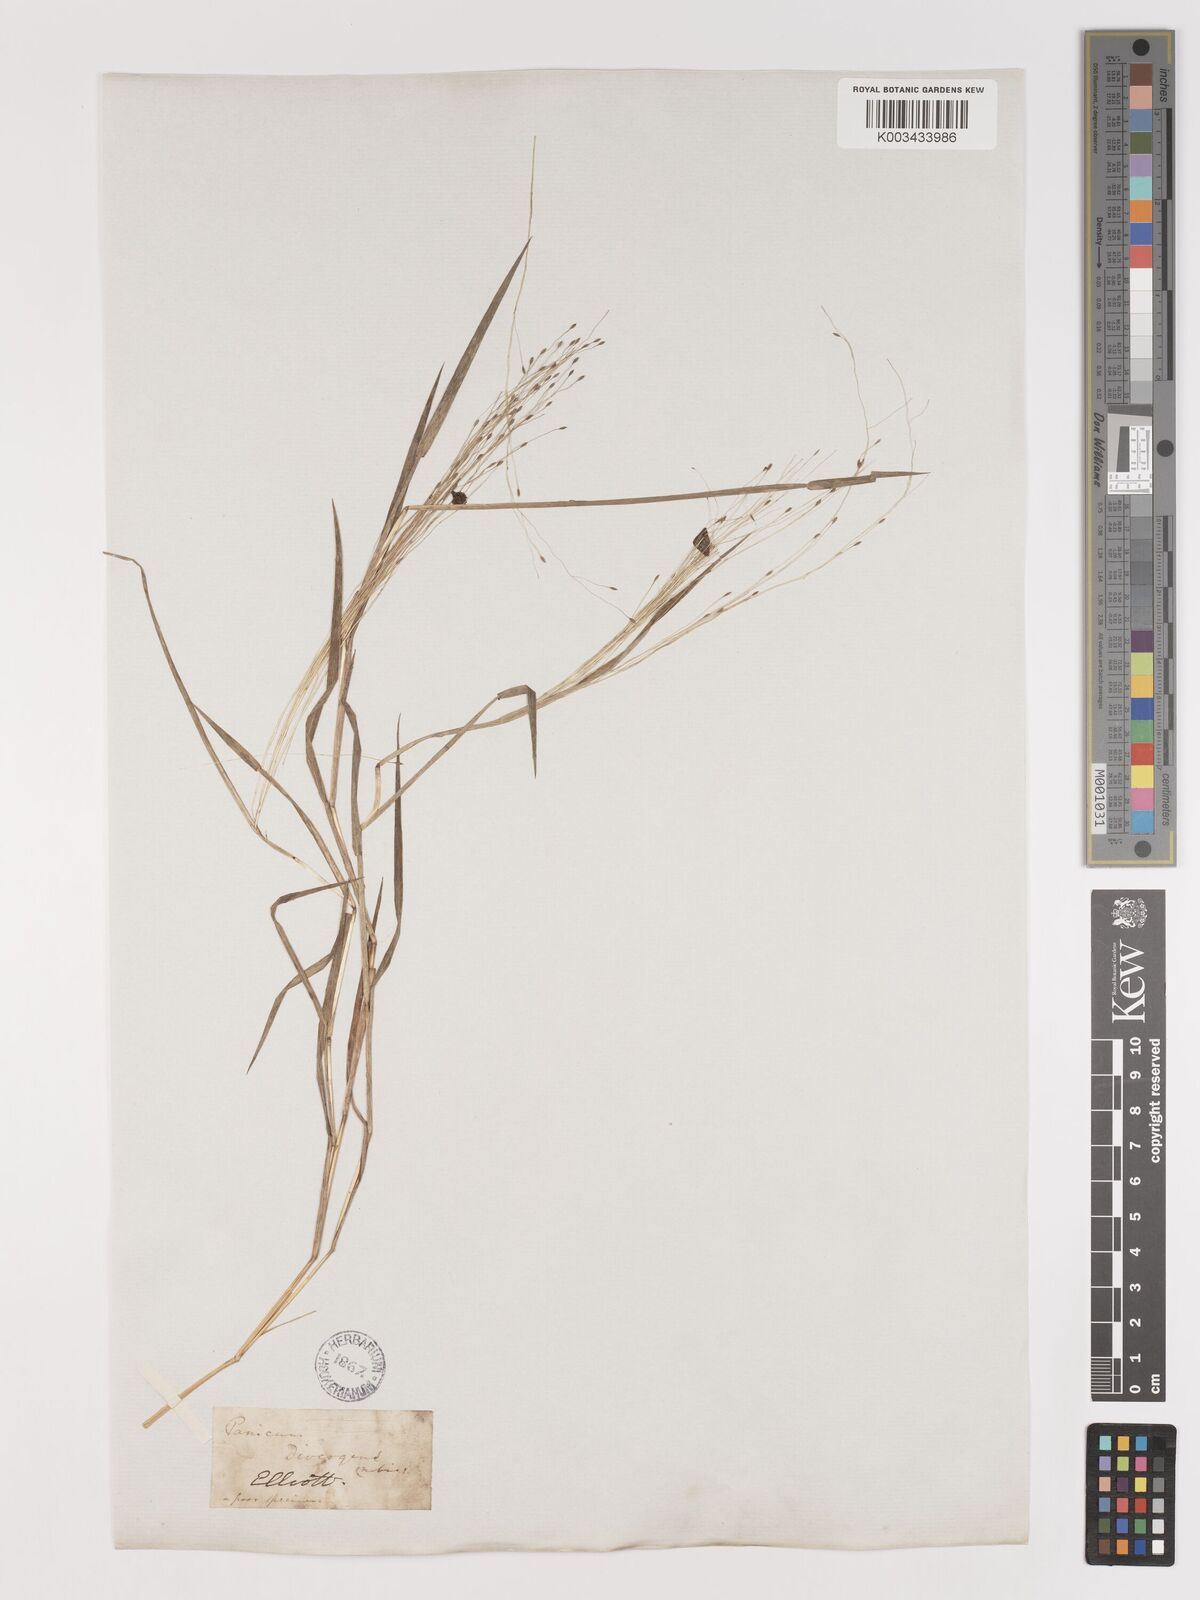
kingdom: Plantae
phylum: Tracheophyta
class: Liliopsida
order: Poales
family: Poaceae
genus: Digitaria
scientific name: Digitaria
